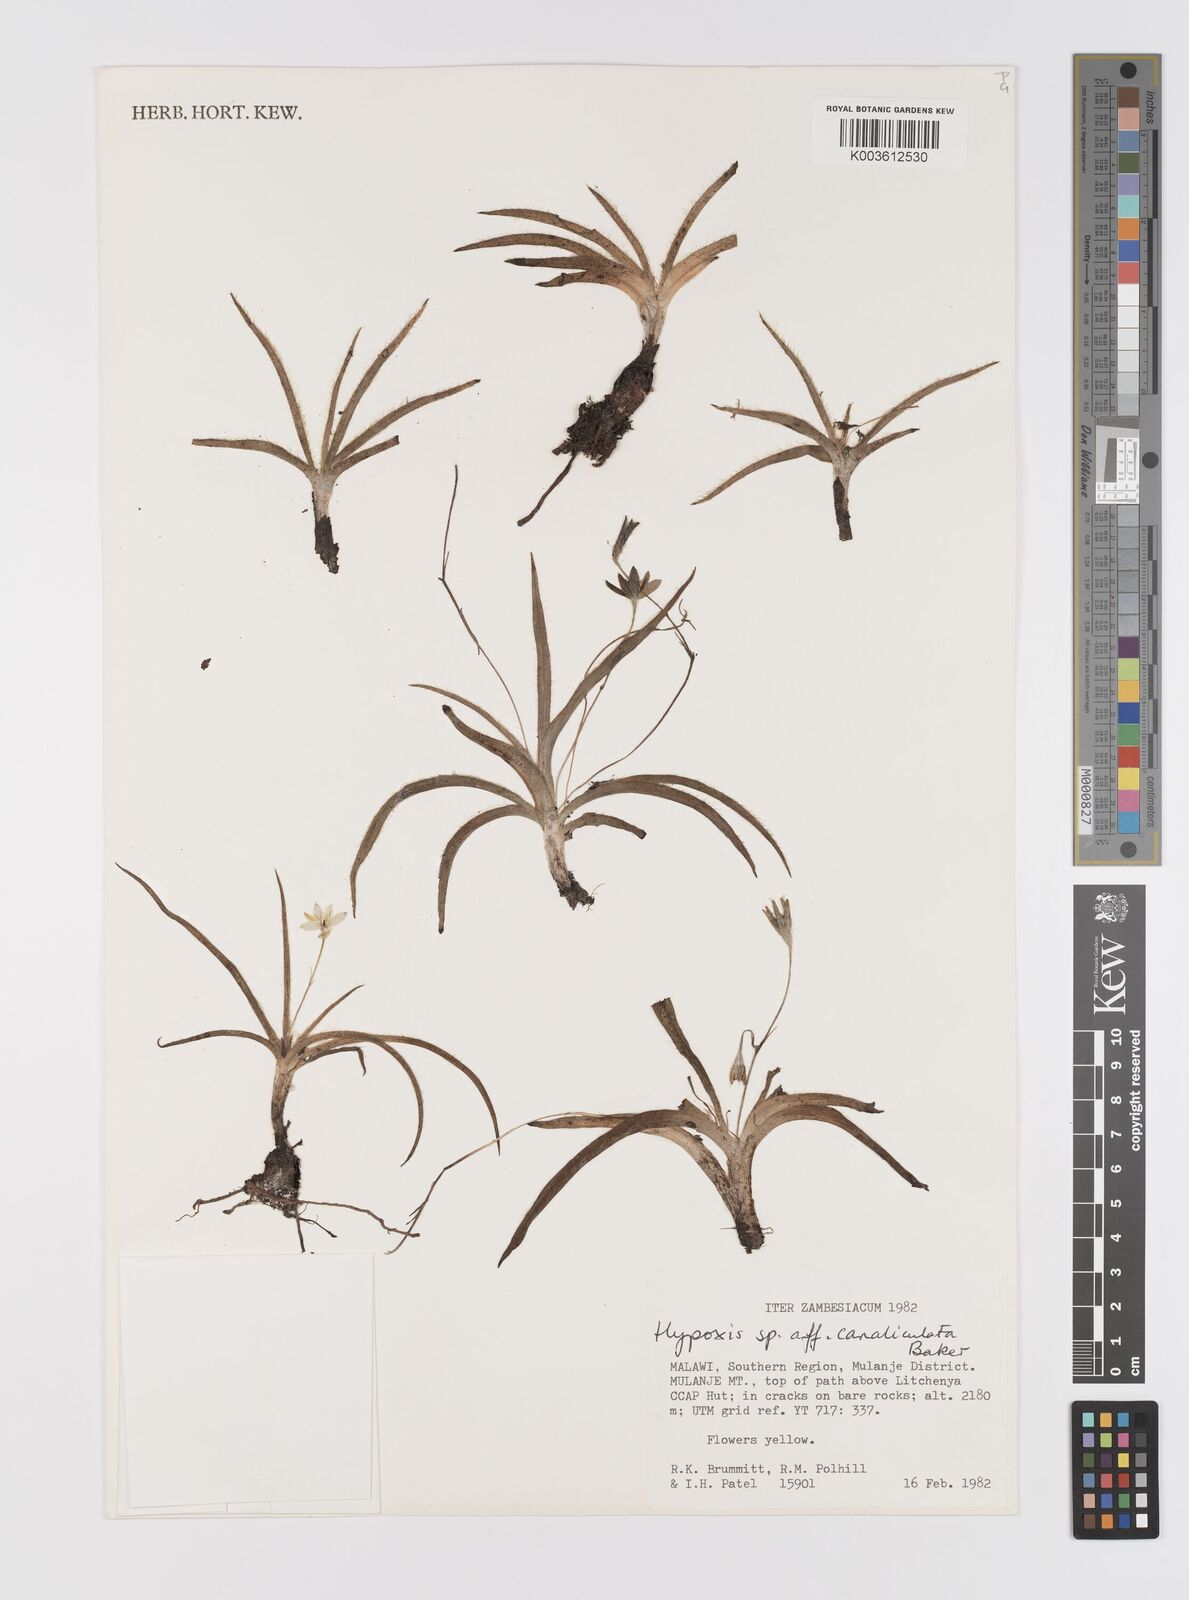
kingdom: Plantae
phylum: Tracheophyta
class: Liliopsida
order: Asparagales
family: Hypoxidaceae
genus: Hypoxis
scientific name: Hypoxis parvifolia
